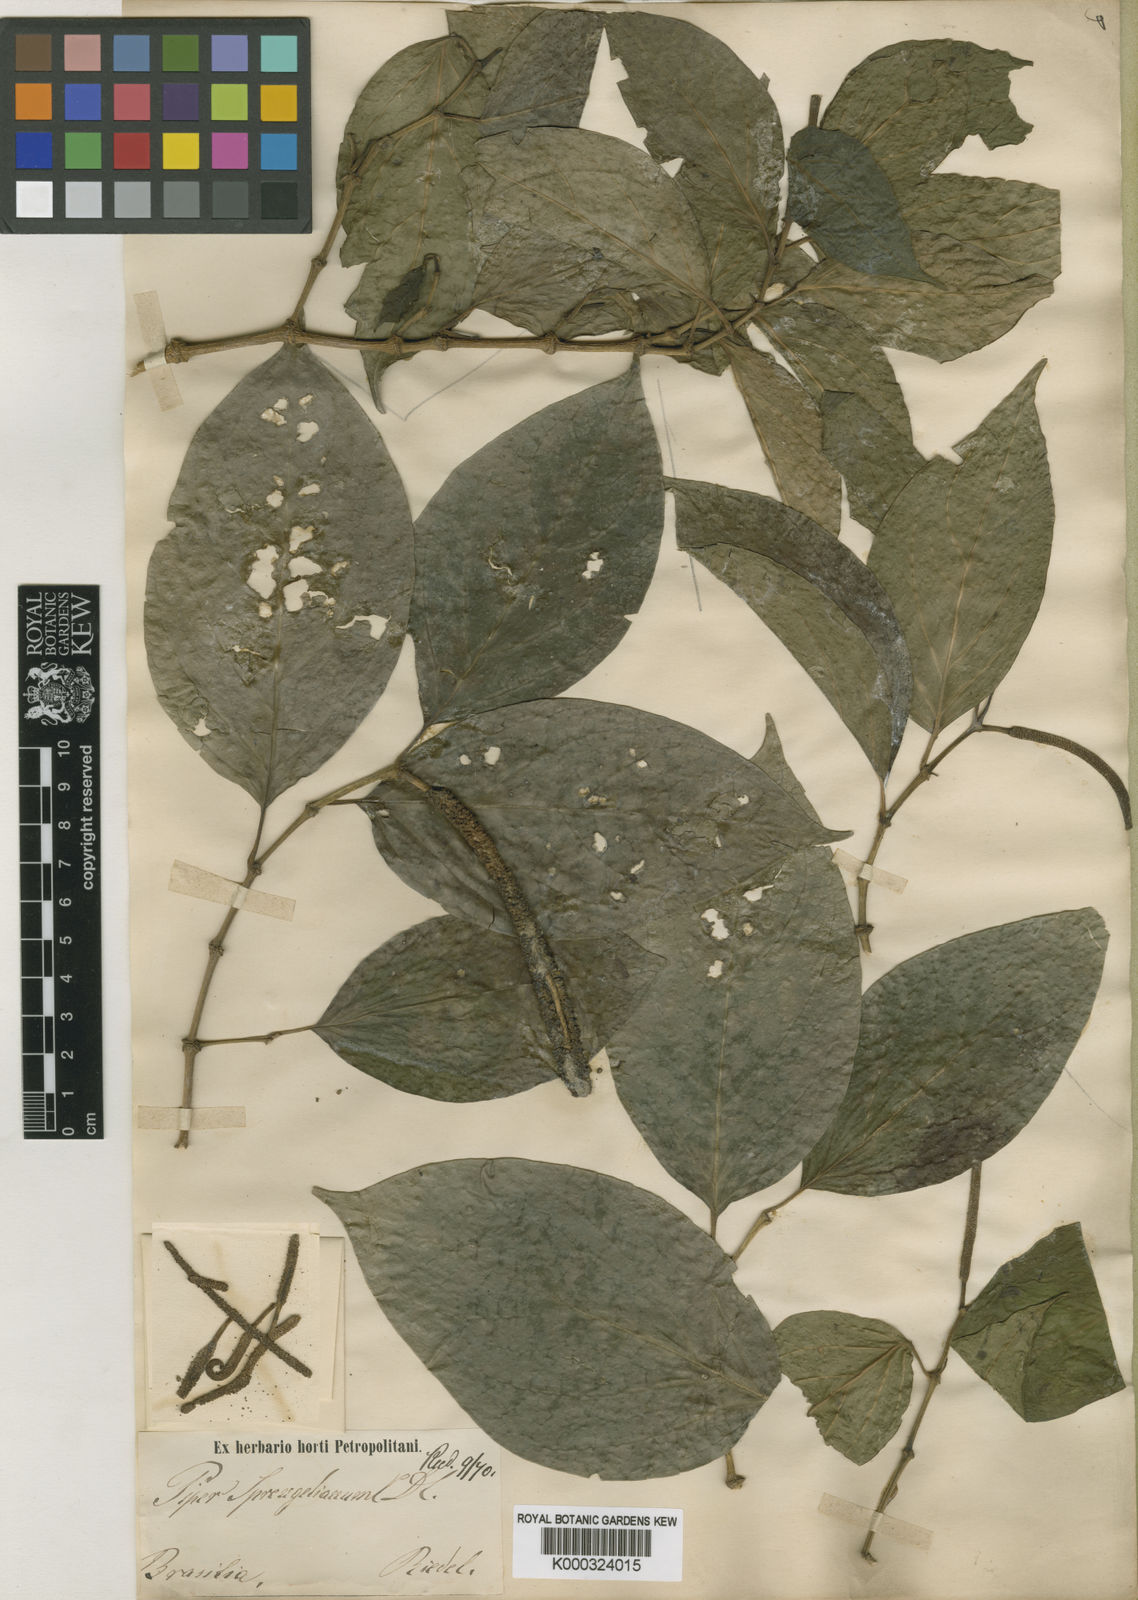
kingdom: Plantae
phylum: Tracheophyta
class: Magnoliopsida
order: Piperales
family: Piperaceae
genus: Piper
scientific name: Piper sprengelianum
